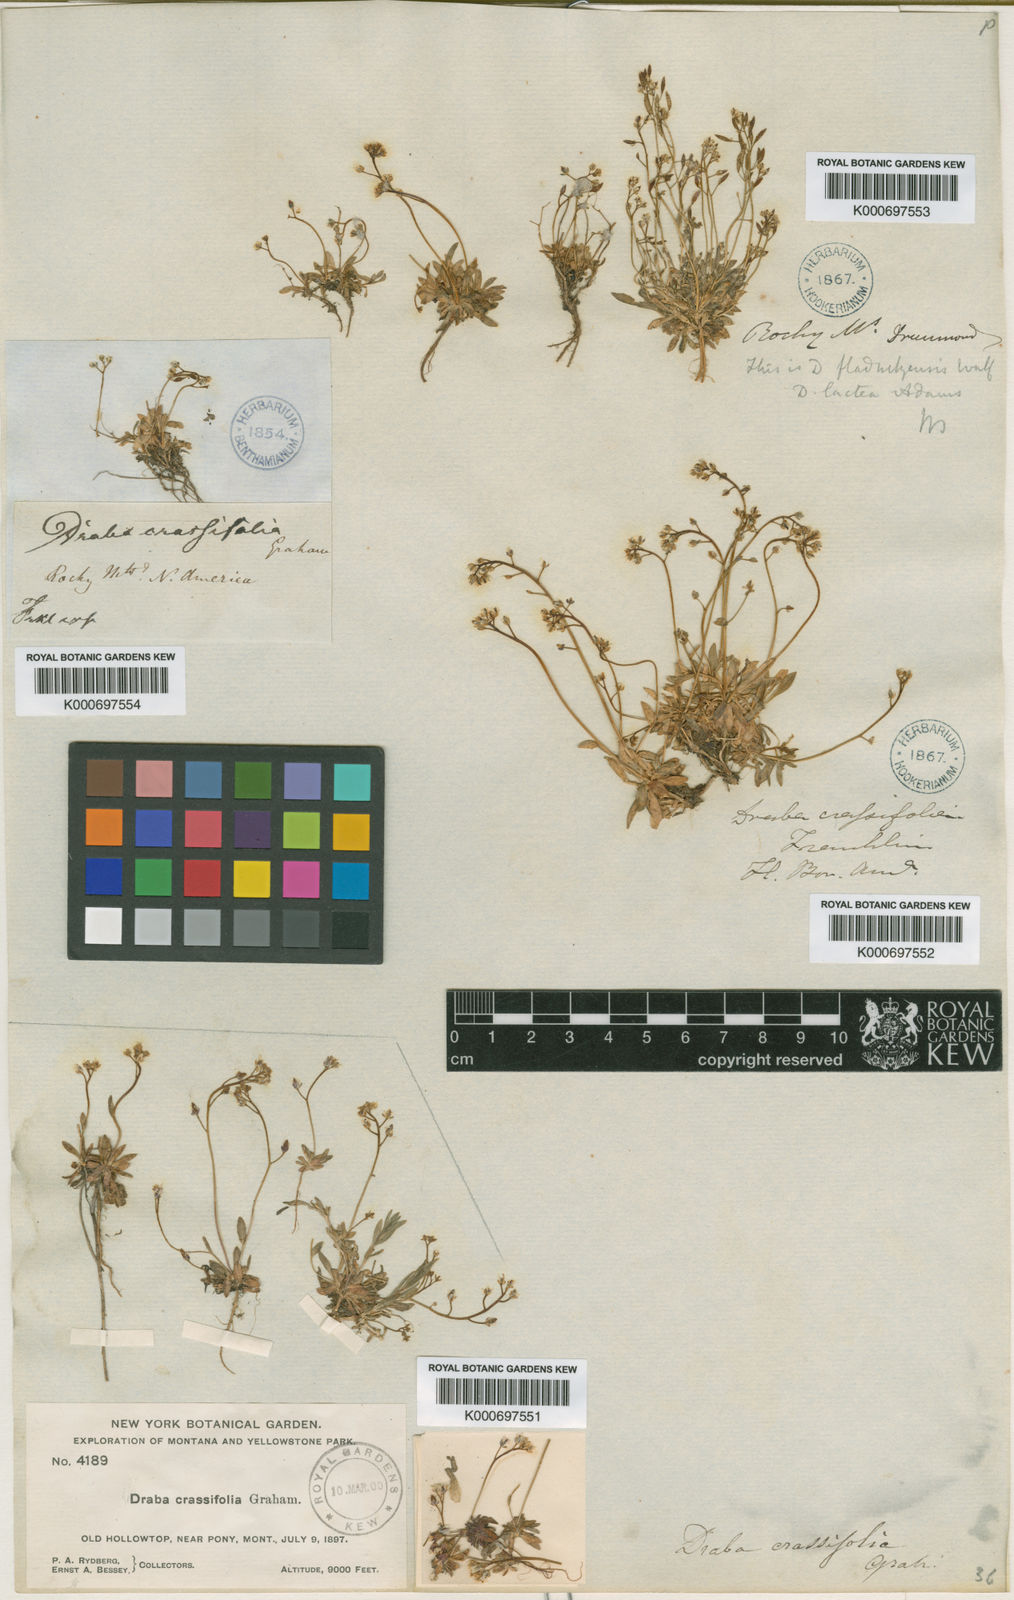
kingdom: Plantae
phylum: Tracheophyta
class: Magnoliopsida
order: Brassicales
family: Brassicaceae
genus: Draba
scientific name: Draba crassifolia
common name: Rocky mountain draba
